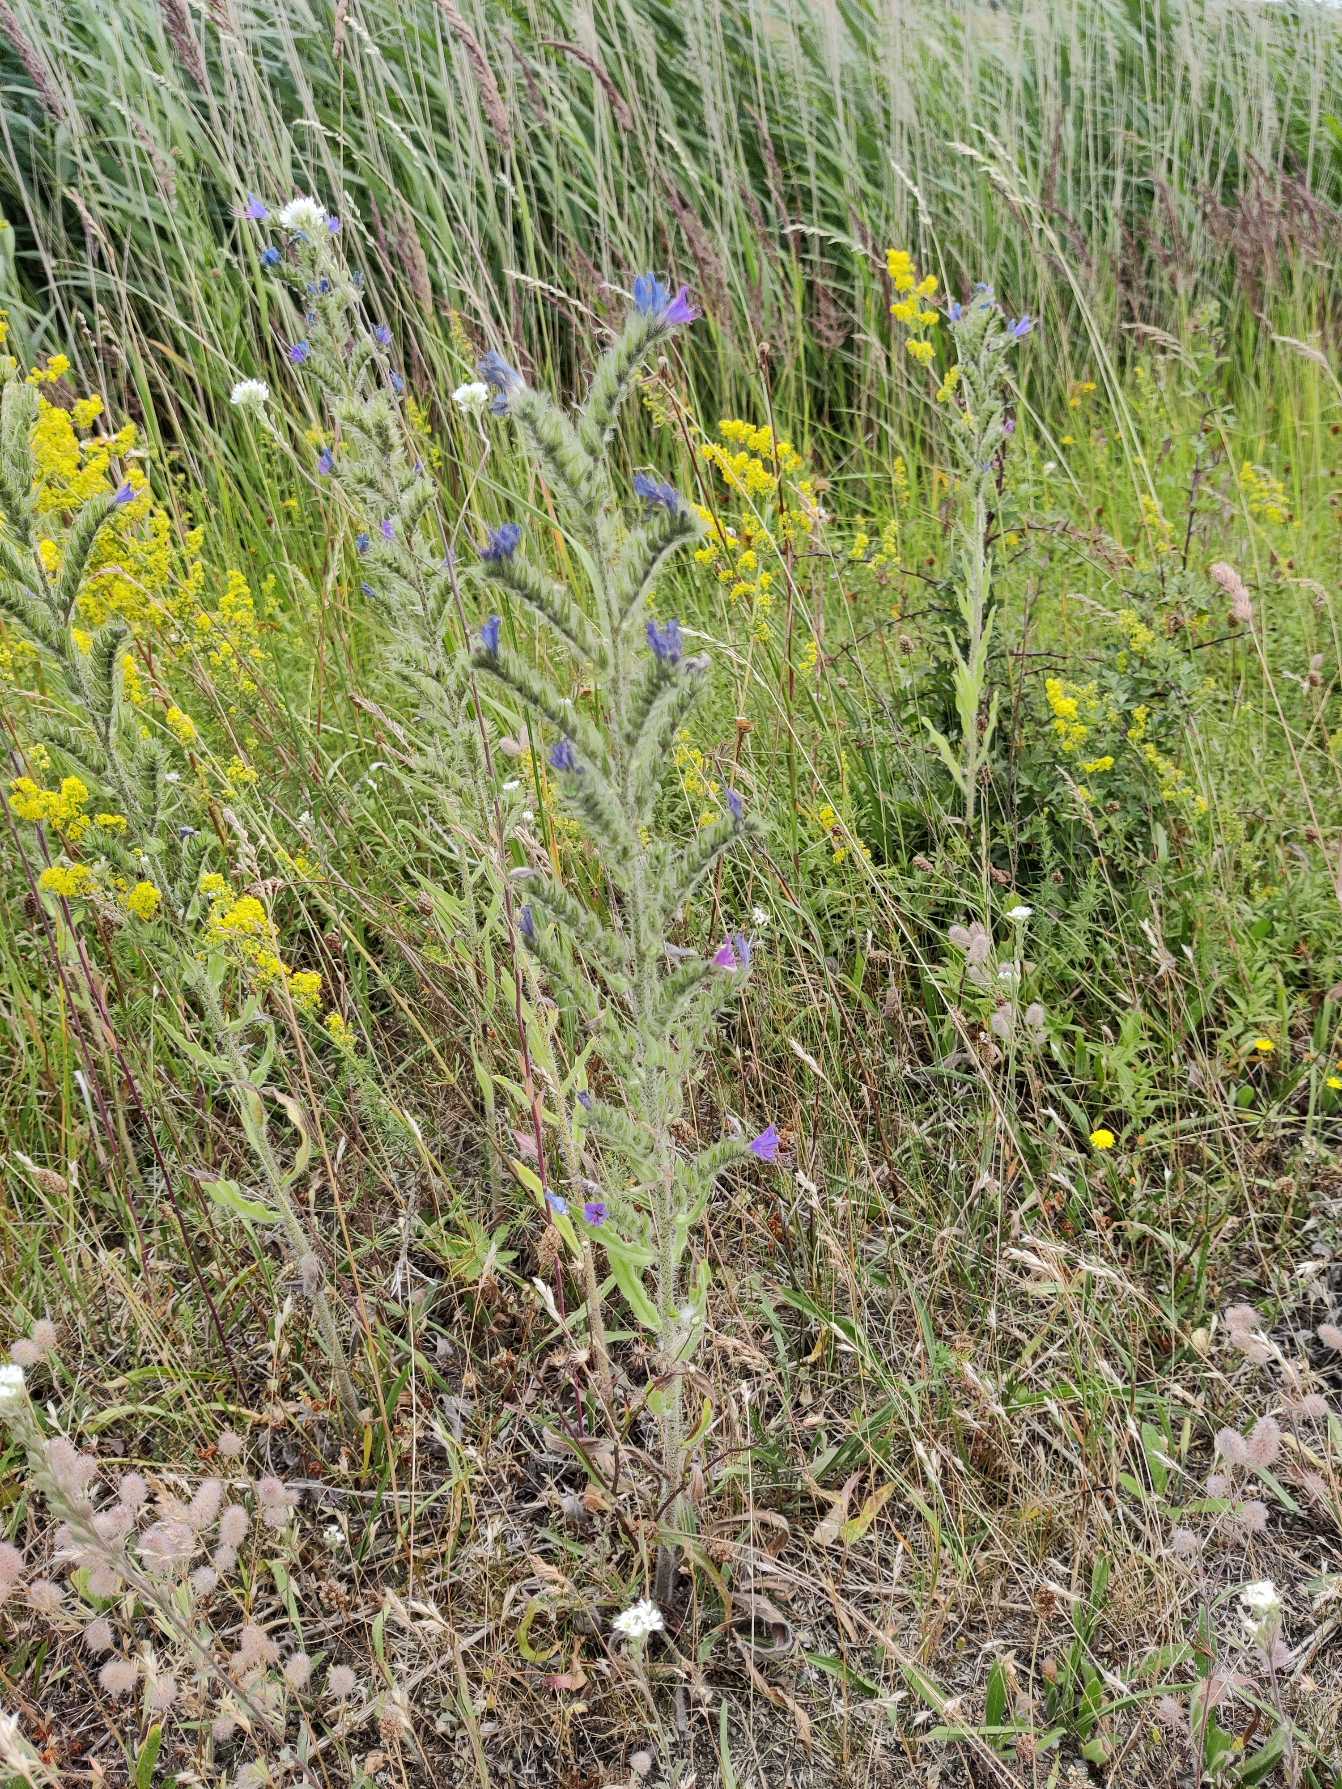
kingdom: Plantae
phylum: Tracheophyta
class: Magnoliopsida
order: Boraginales
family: Boraginaceae
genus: Echium
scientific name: Echium vulgare
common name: Slangehoved
